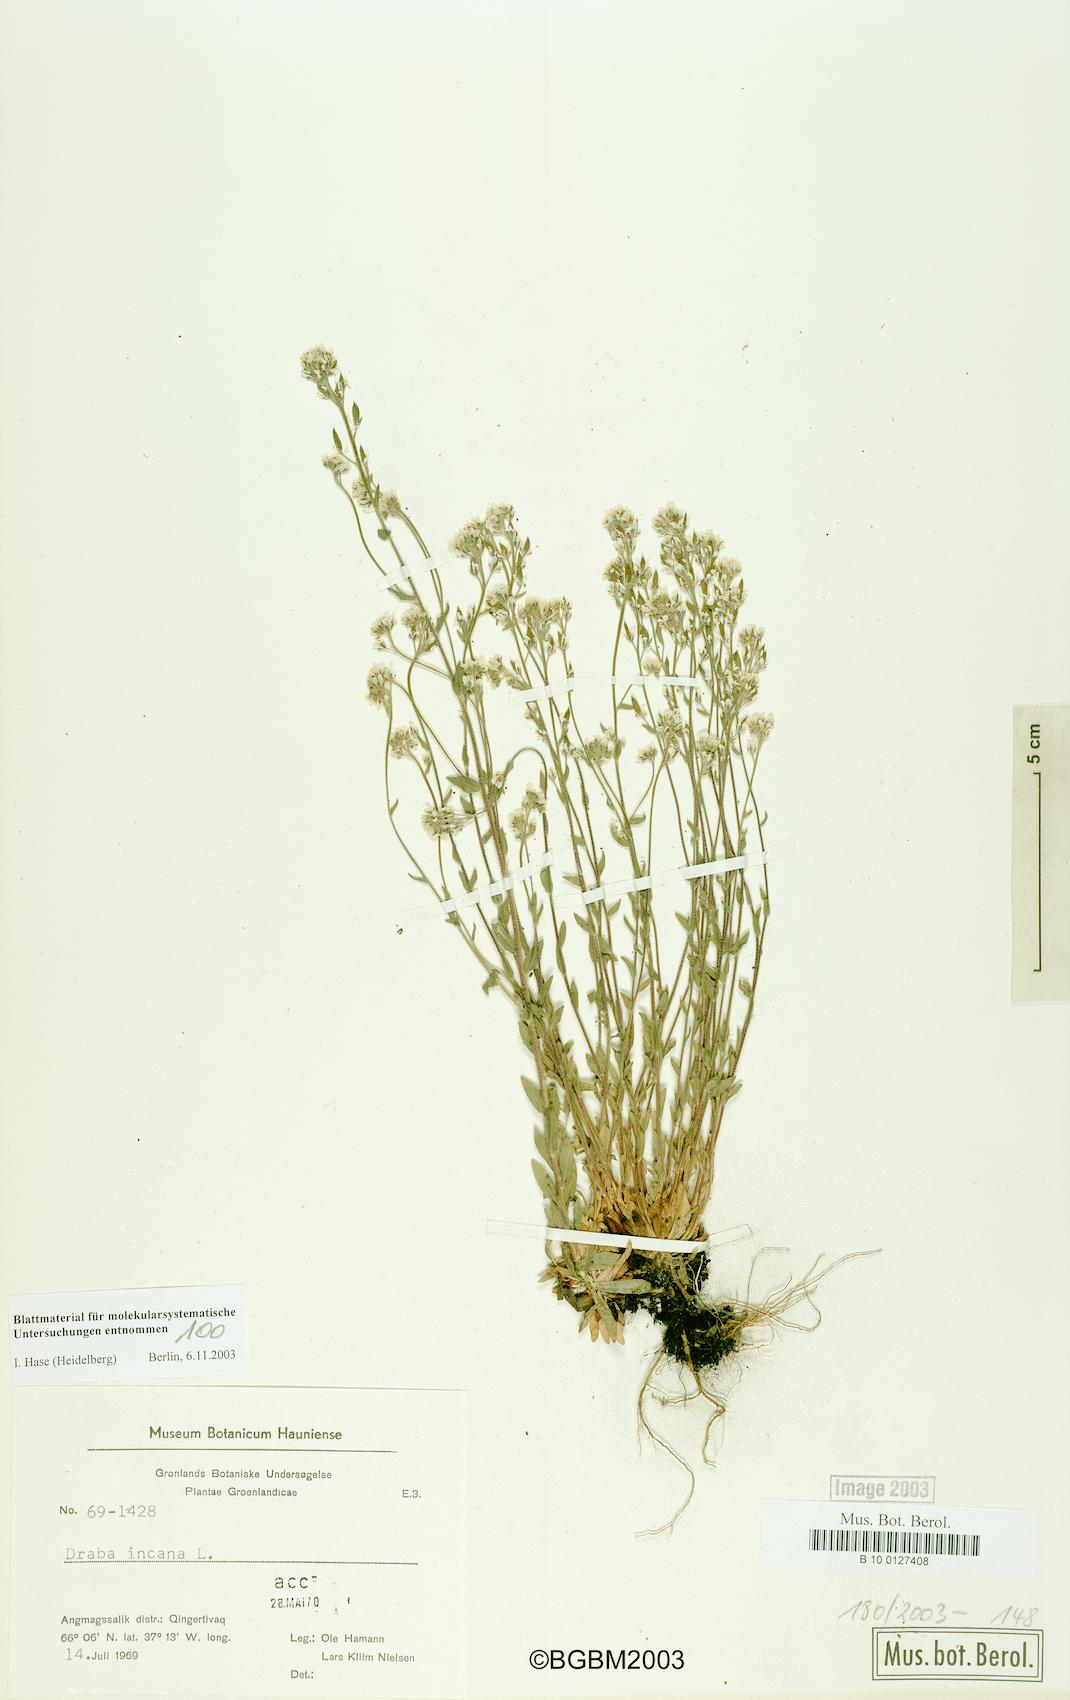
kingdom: Plantae
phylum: Tracheophyta
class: Magnoliopsida
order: Brassicales
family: Brassicaceae
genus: Draba
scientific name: Draba incana
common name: Hoary whitlow-grass
